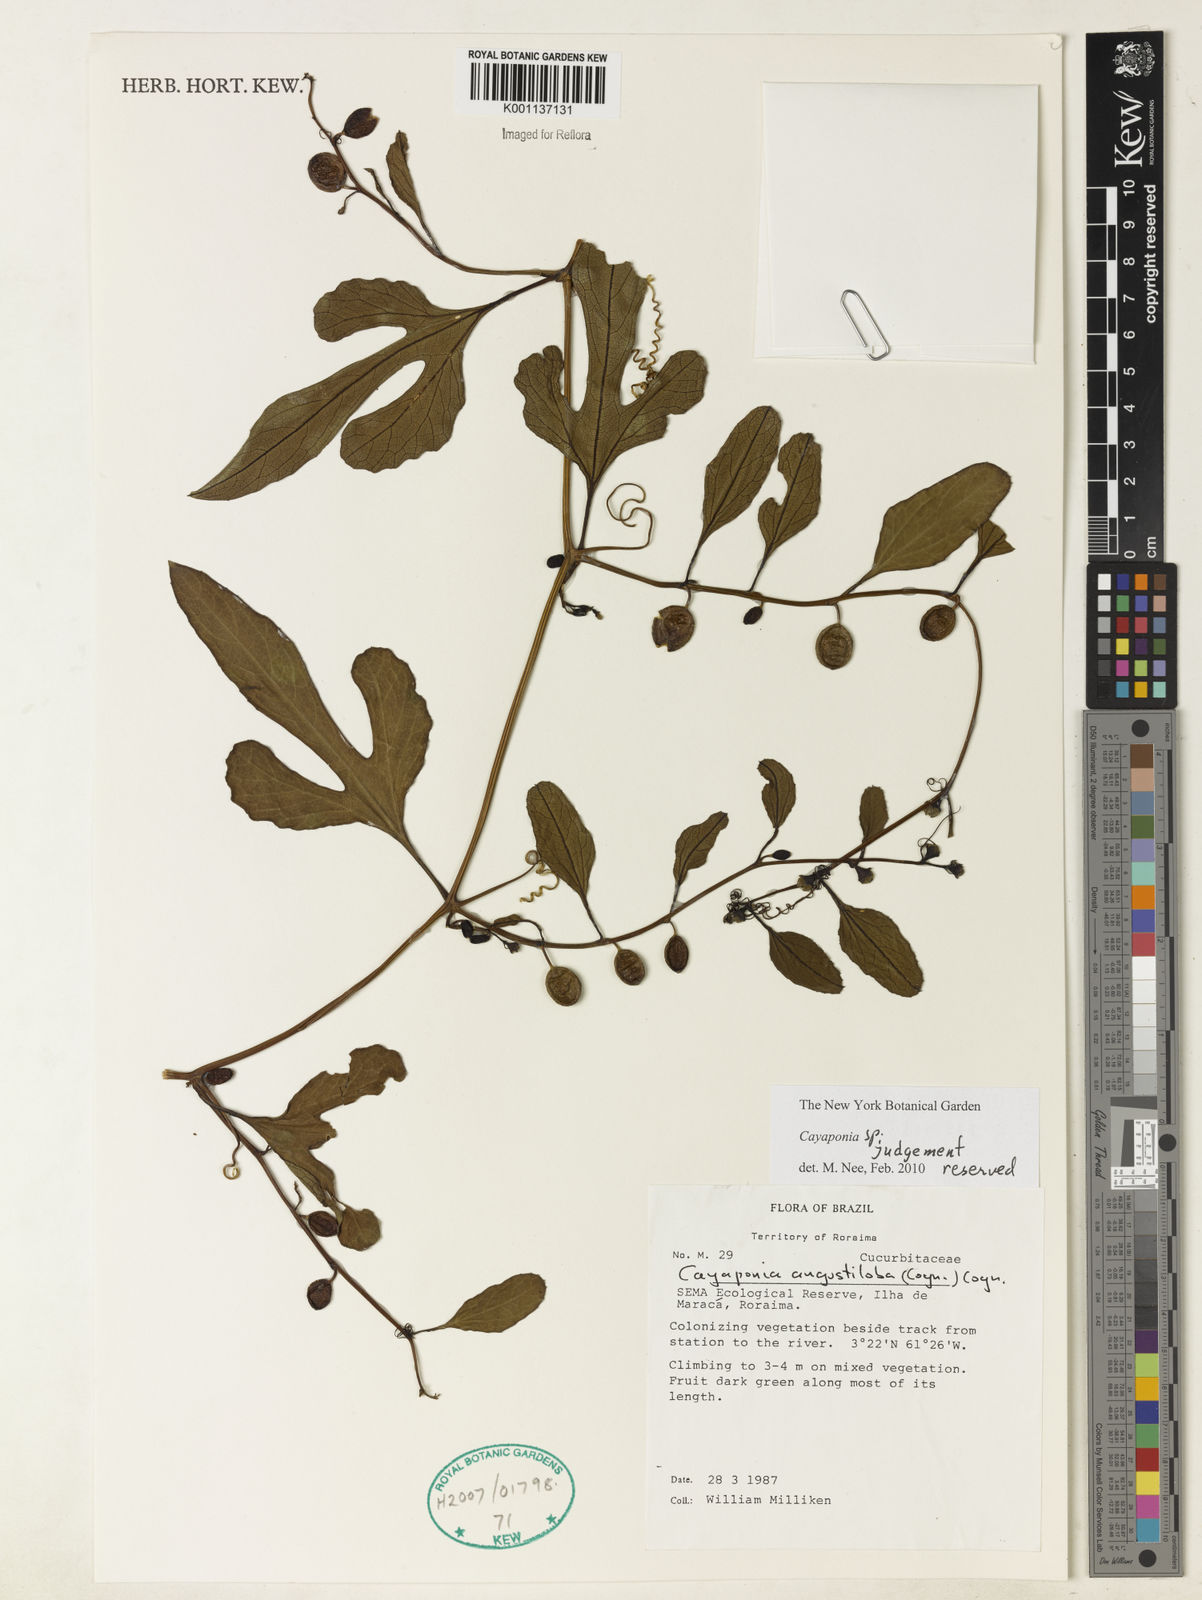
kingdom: Plantae
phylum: Tracheophyta
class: Magnoliopsida
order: Cucurbitales
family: Cucurbitaceae
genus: Cayaponia
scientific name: Cayaponia
